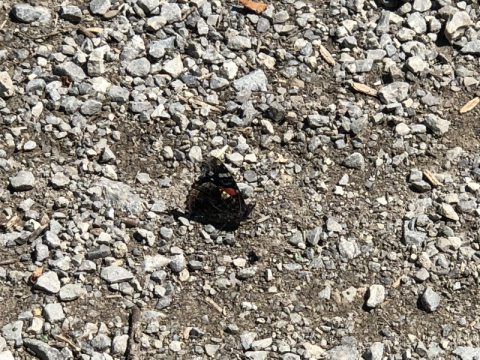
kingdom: Animalia
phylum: Arthropoda
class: Insecta
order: Lepidoptera
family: Nymphalidae
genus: Vanessa
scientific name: Vanessa atalanta
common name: Red Admiral
